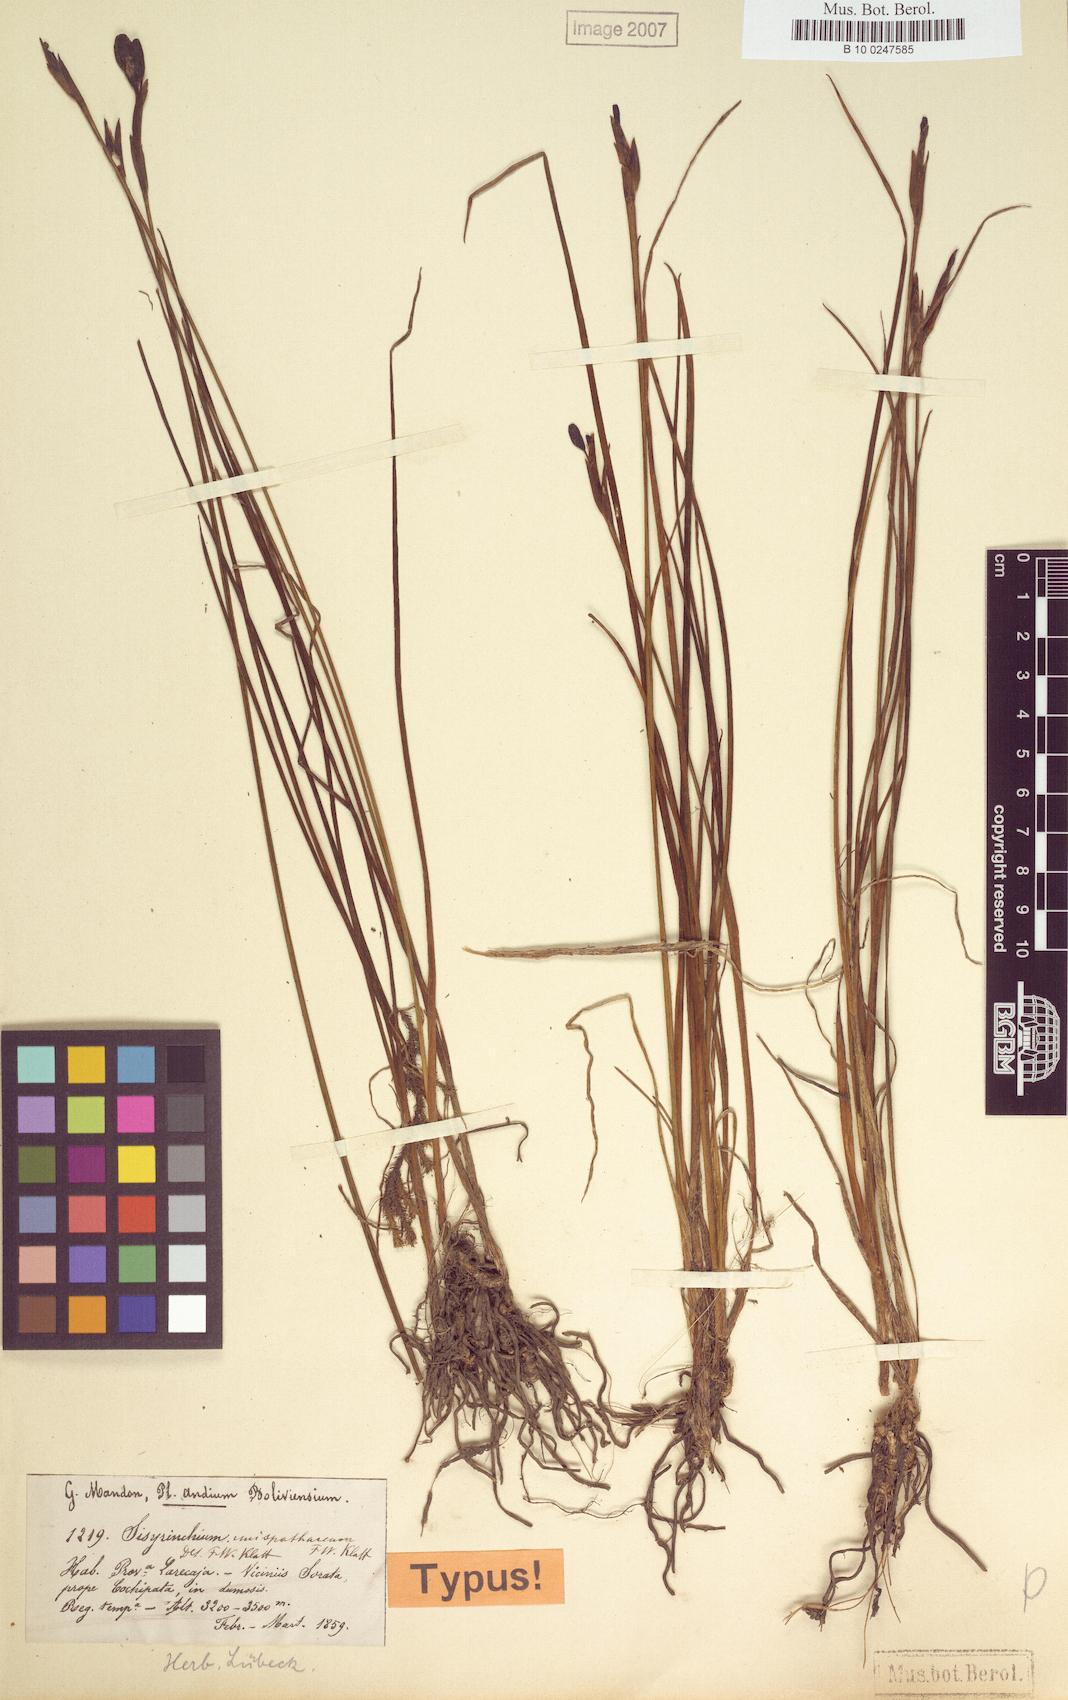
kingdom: Plantae
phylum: Tracheophyta
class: Liliopsida
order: Asparagales
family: Iridaceae
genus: Sisyrinchium
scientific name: Sisyrinchium unispathaceum
